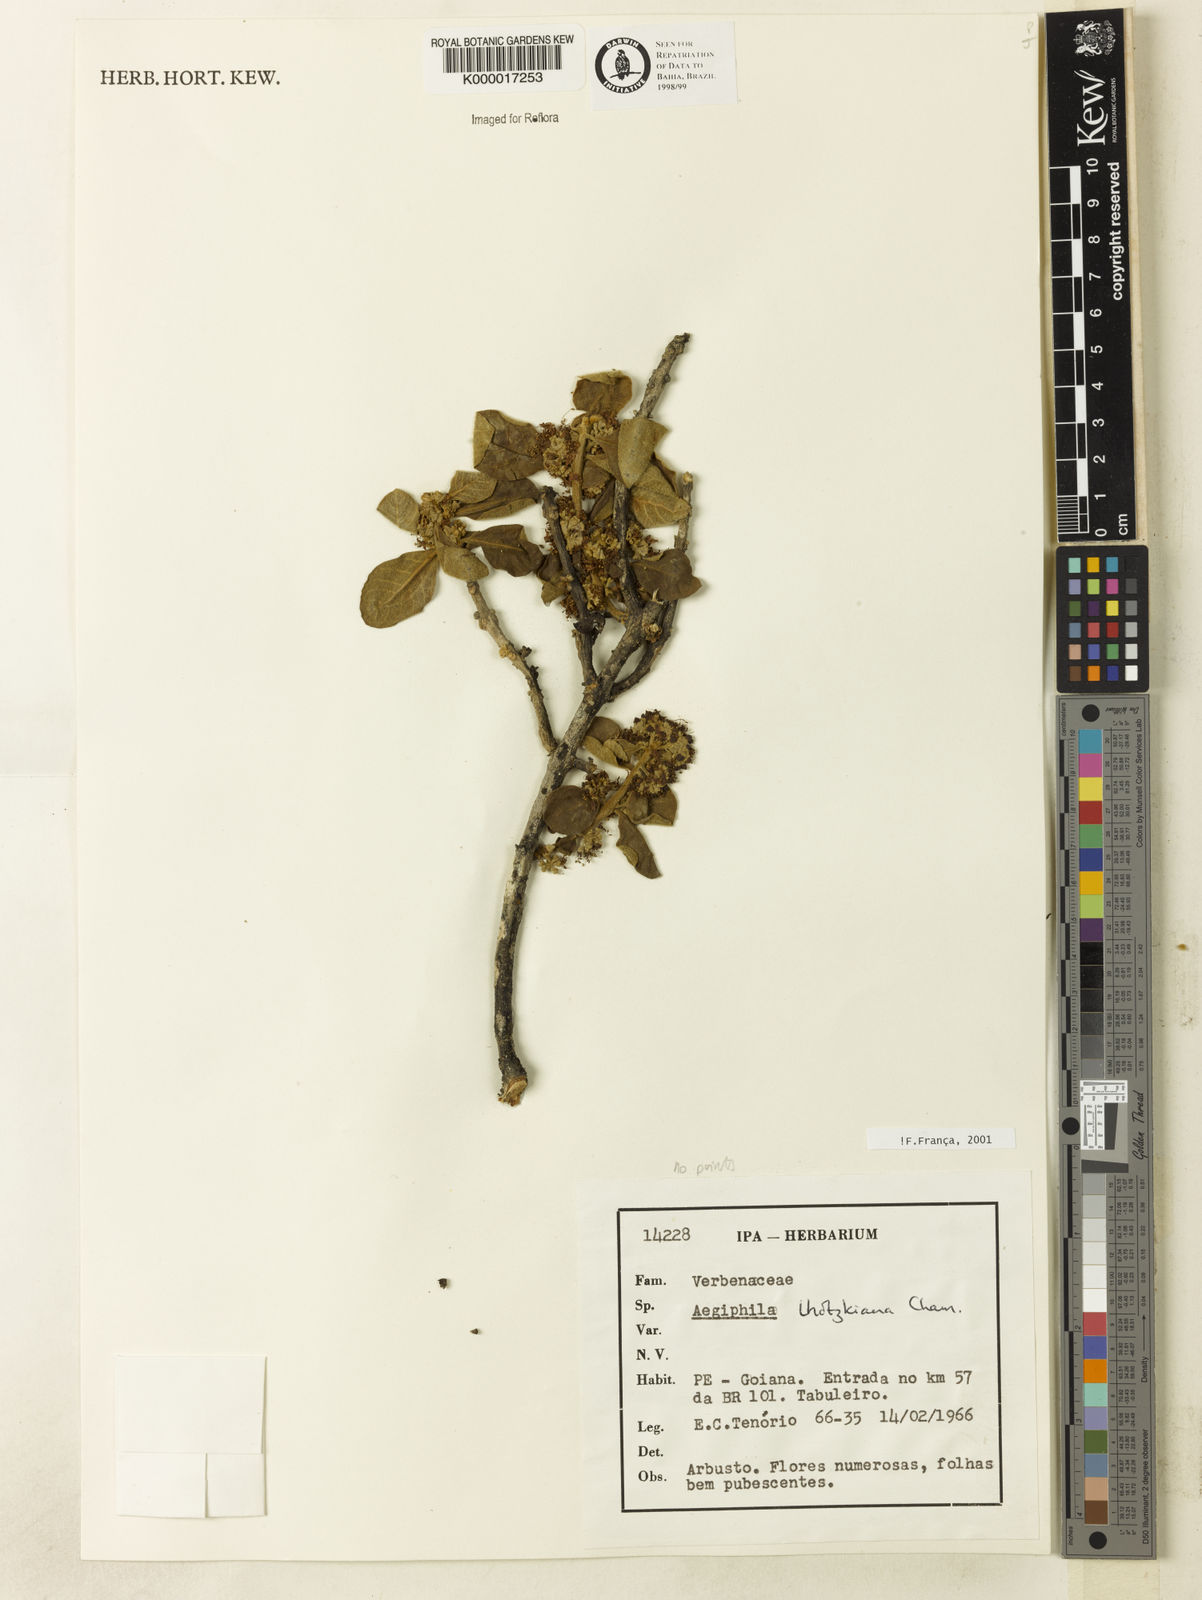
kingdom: Plantae
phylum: Tracheophyta
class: Magnoliopsida
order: Lamiales
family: Lamiaceae
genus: Aegiphila
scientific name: Aegiphila verticillata
